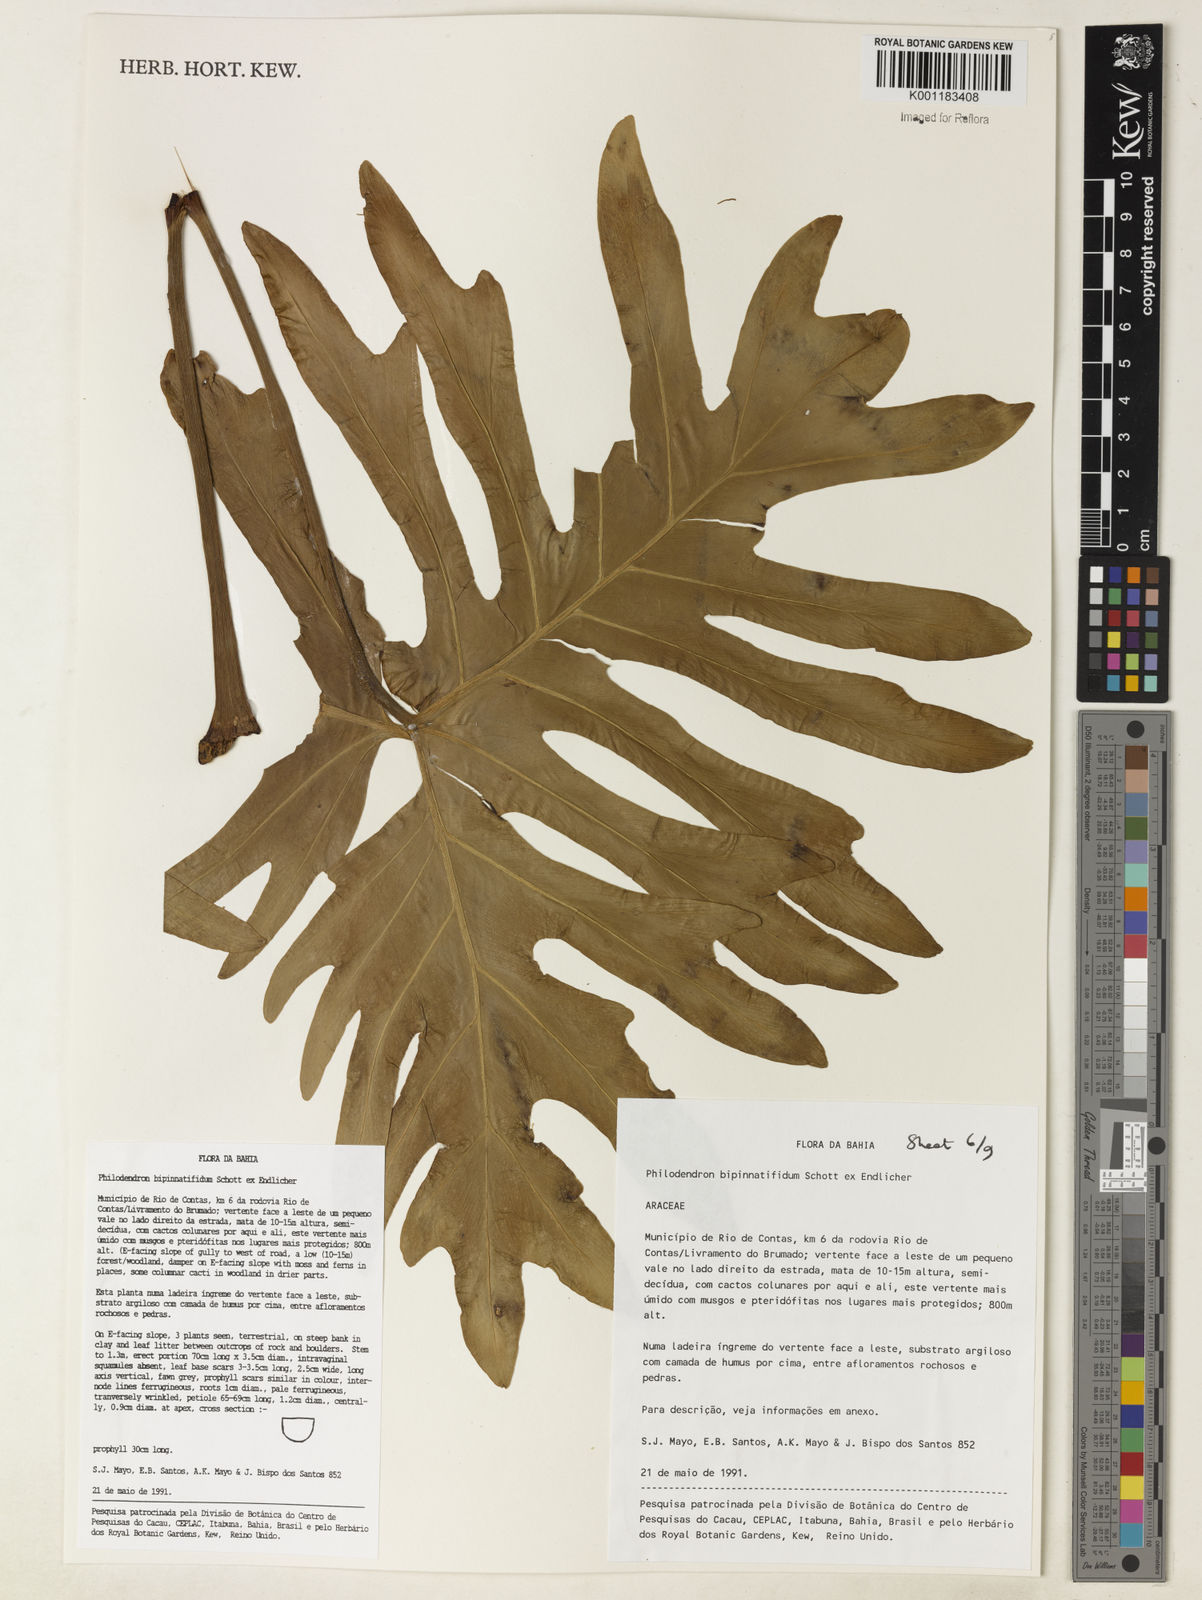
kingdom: Plantae
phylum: Tracheophyta
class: Liliopsida
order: Alismatales
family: Araceae
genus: Philodendron
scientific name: Philodendron
